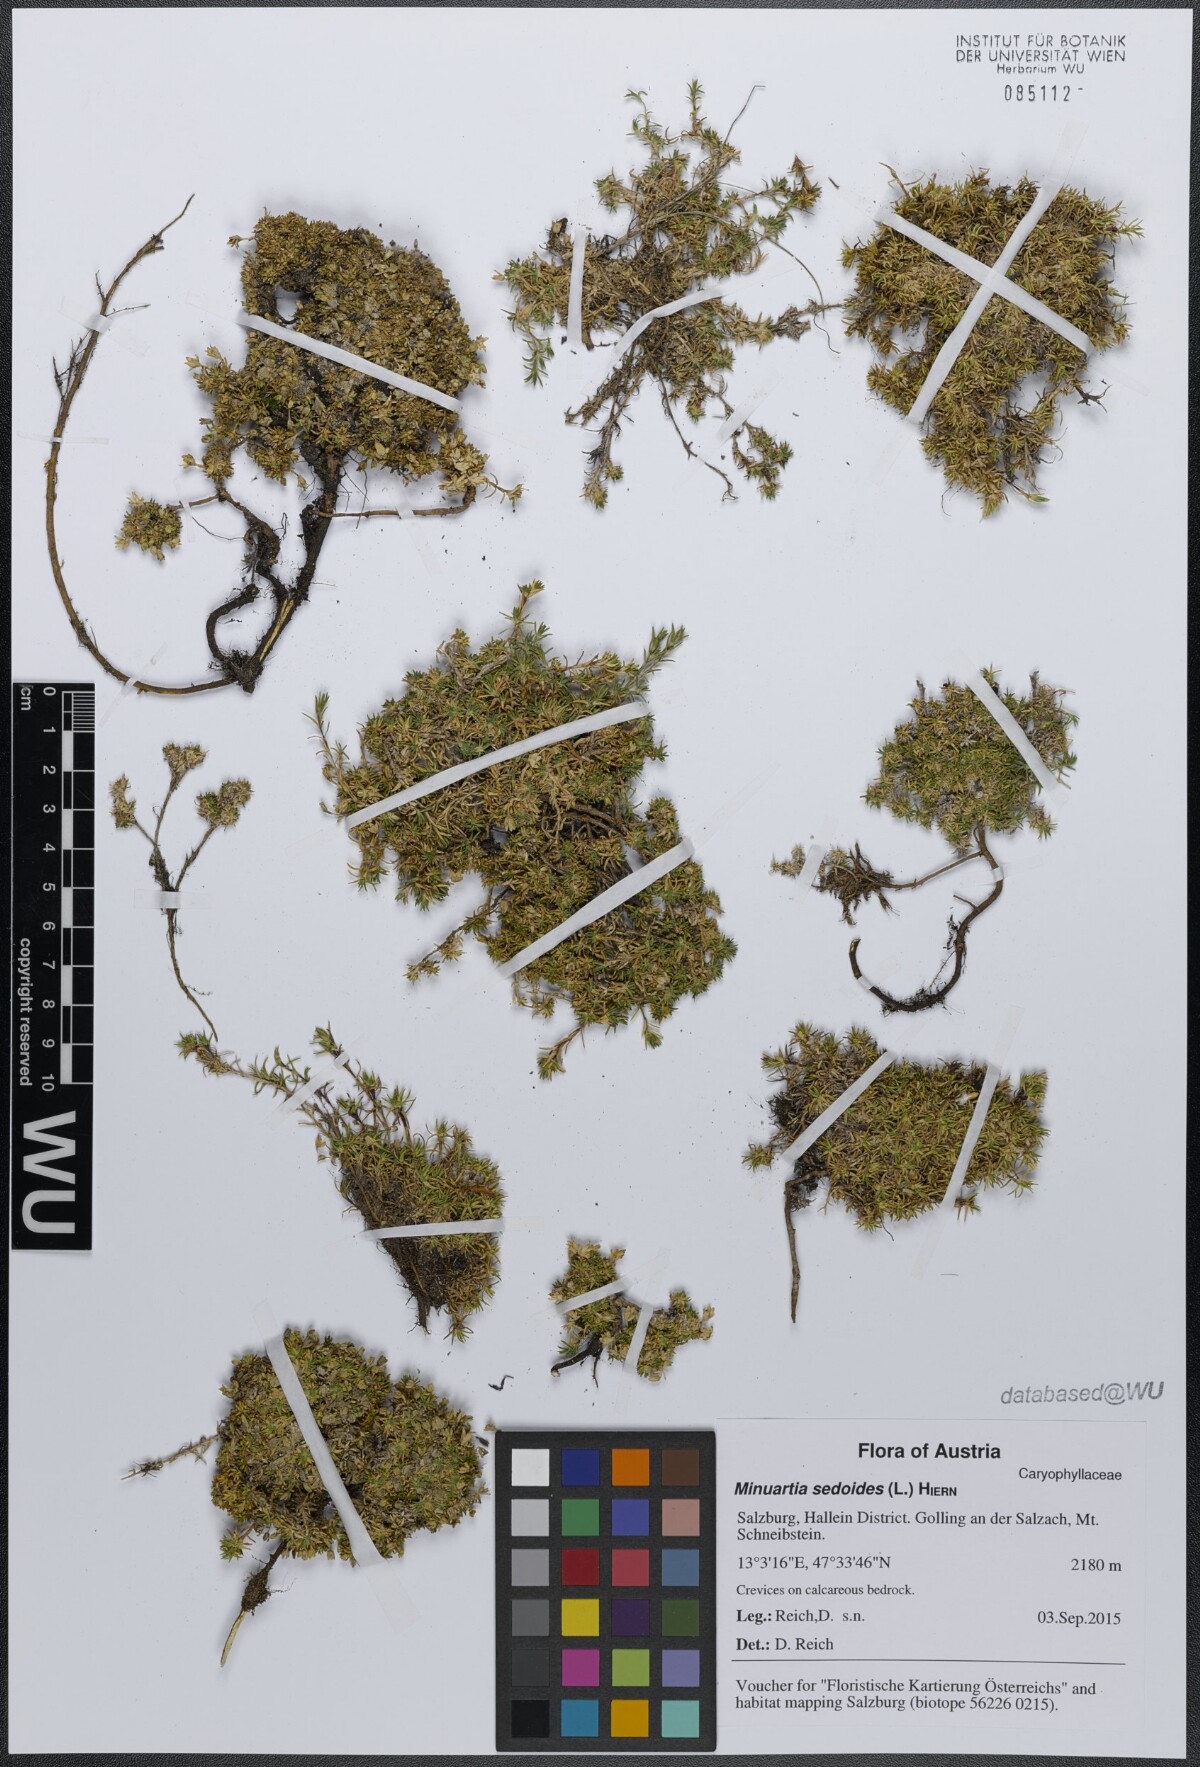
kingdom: Plantae
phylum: Tracheophyta
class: Magnoliopsida
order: Caryophyllales
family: Caryophyllaceae
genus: Cherleria
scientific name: Cherleria sedoides
